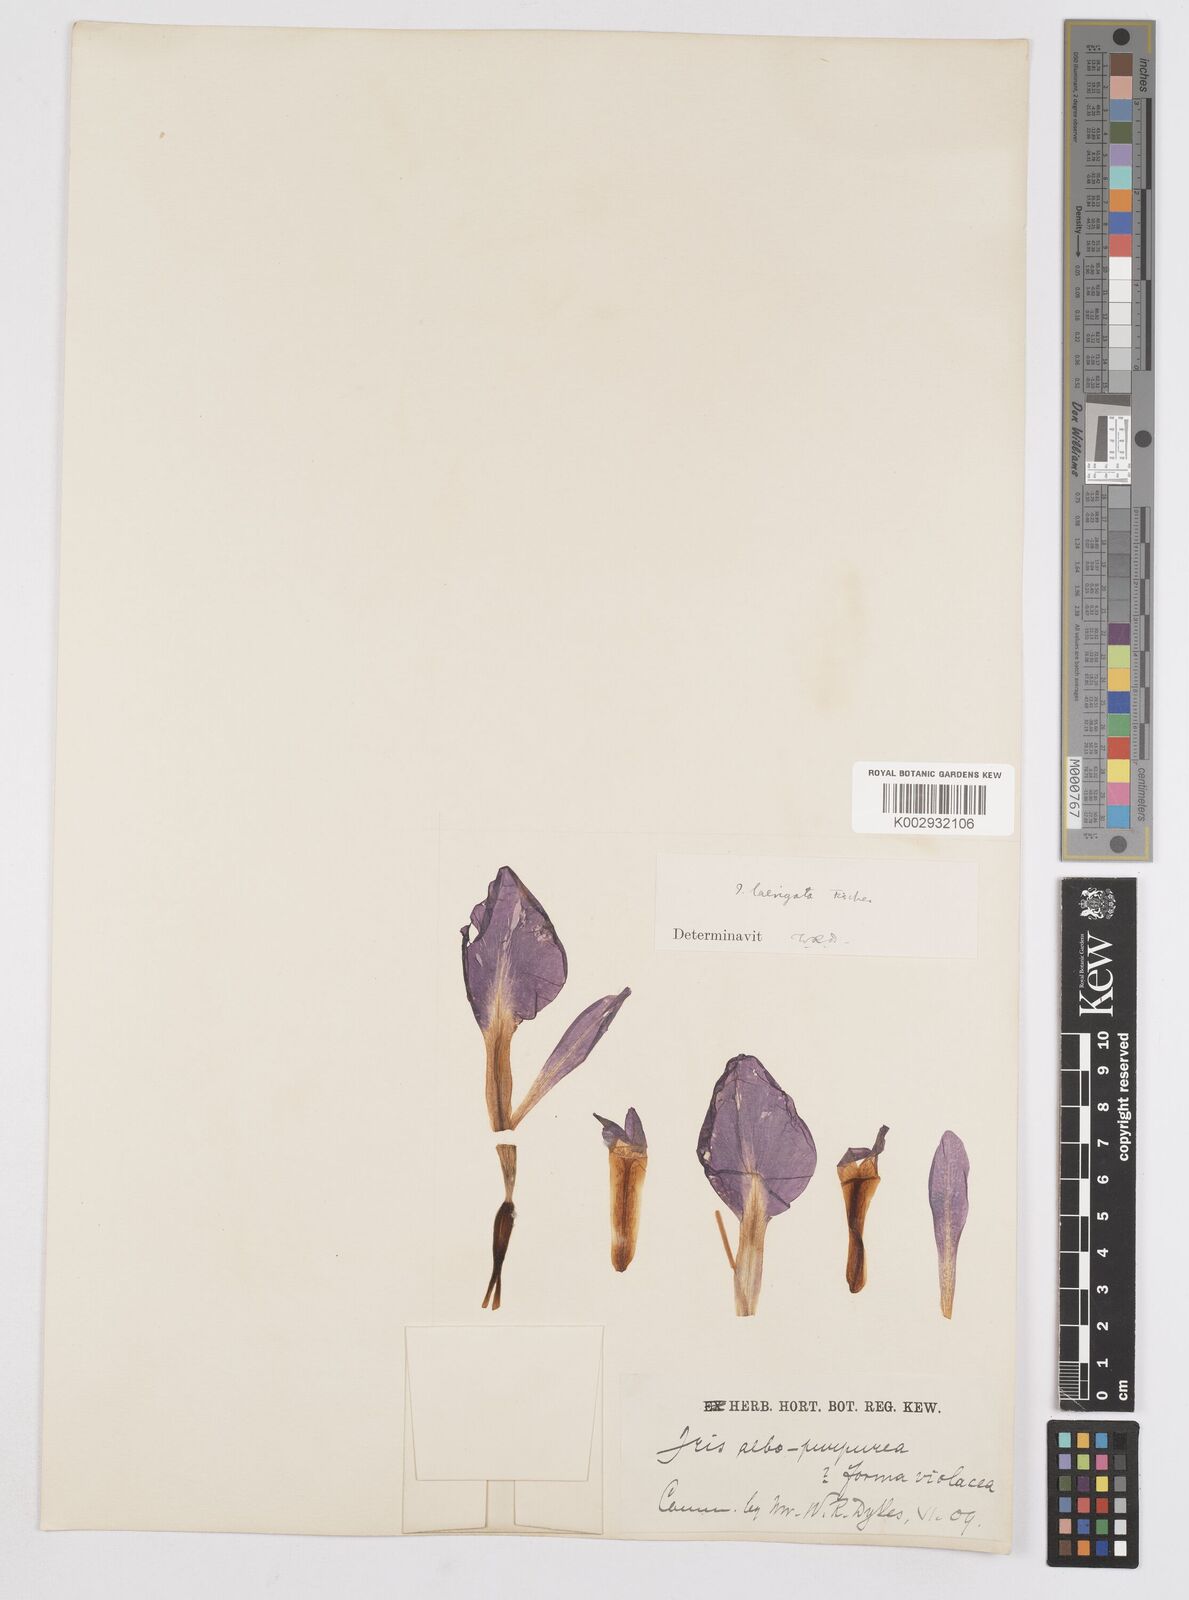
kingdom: Plantae
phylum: Tracheophyta
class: Liliopsida
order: Asparagales
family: Iridaceae
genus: Iris
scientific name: Iris laevigata
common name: Japanese iris
